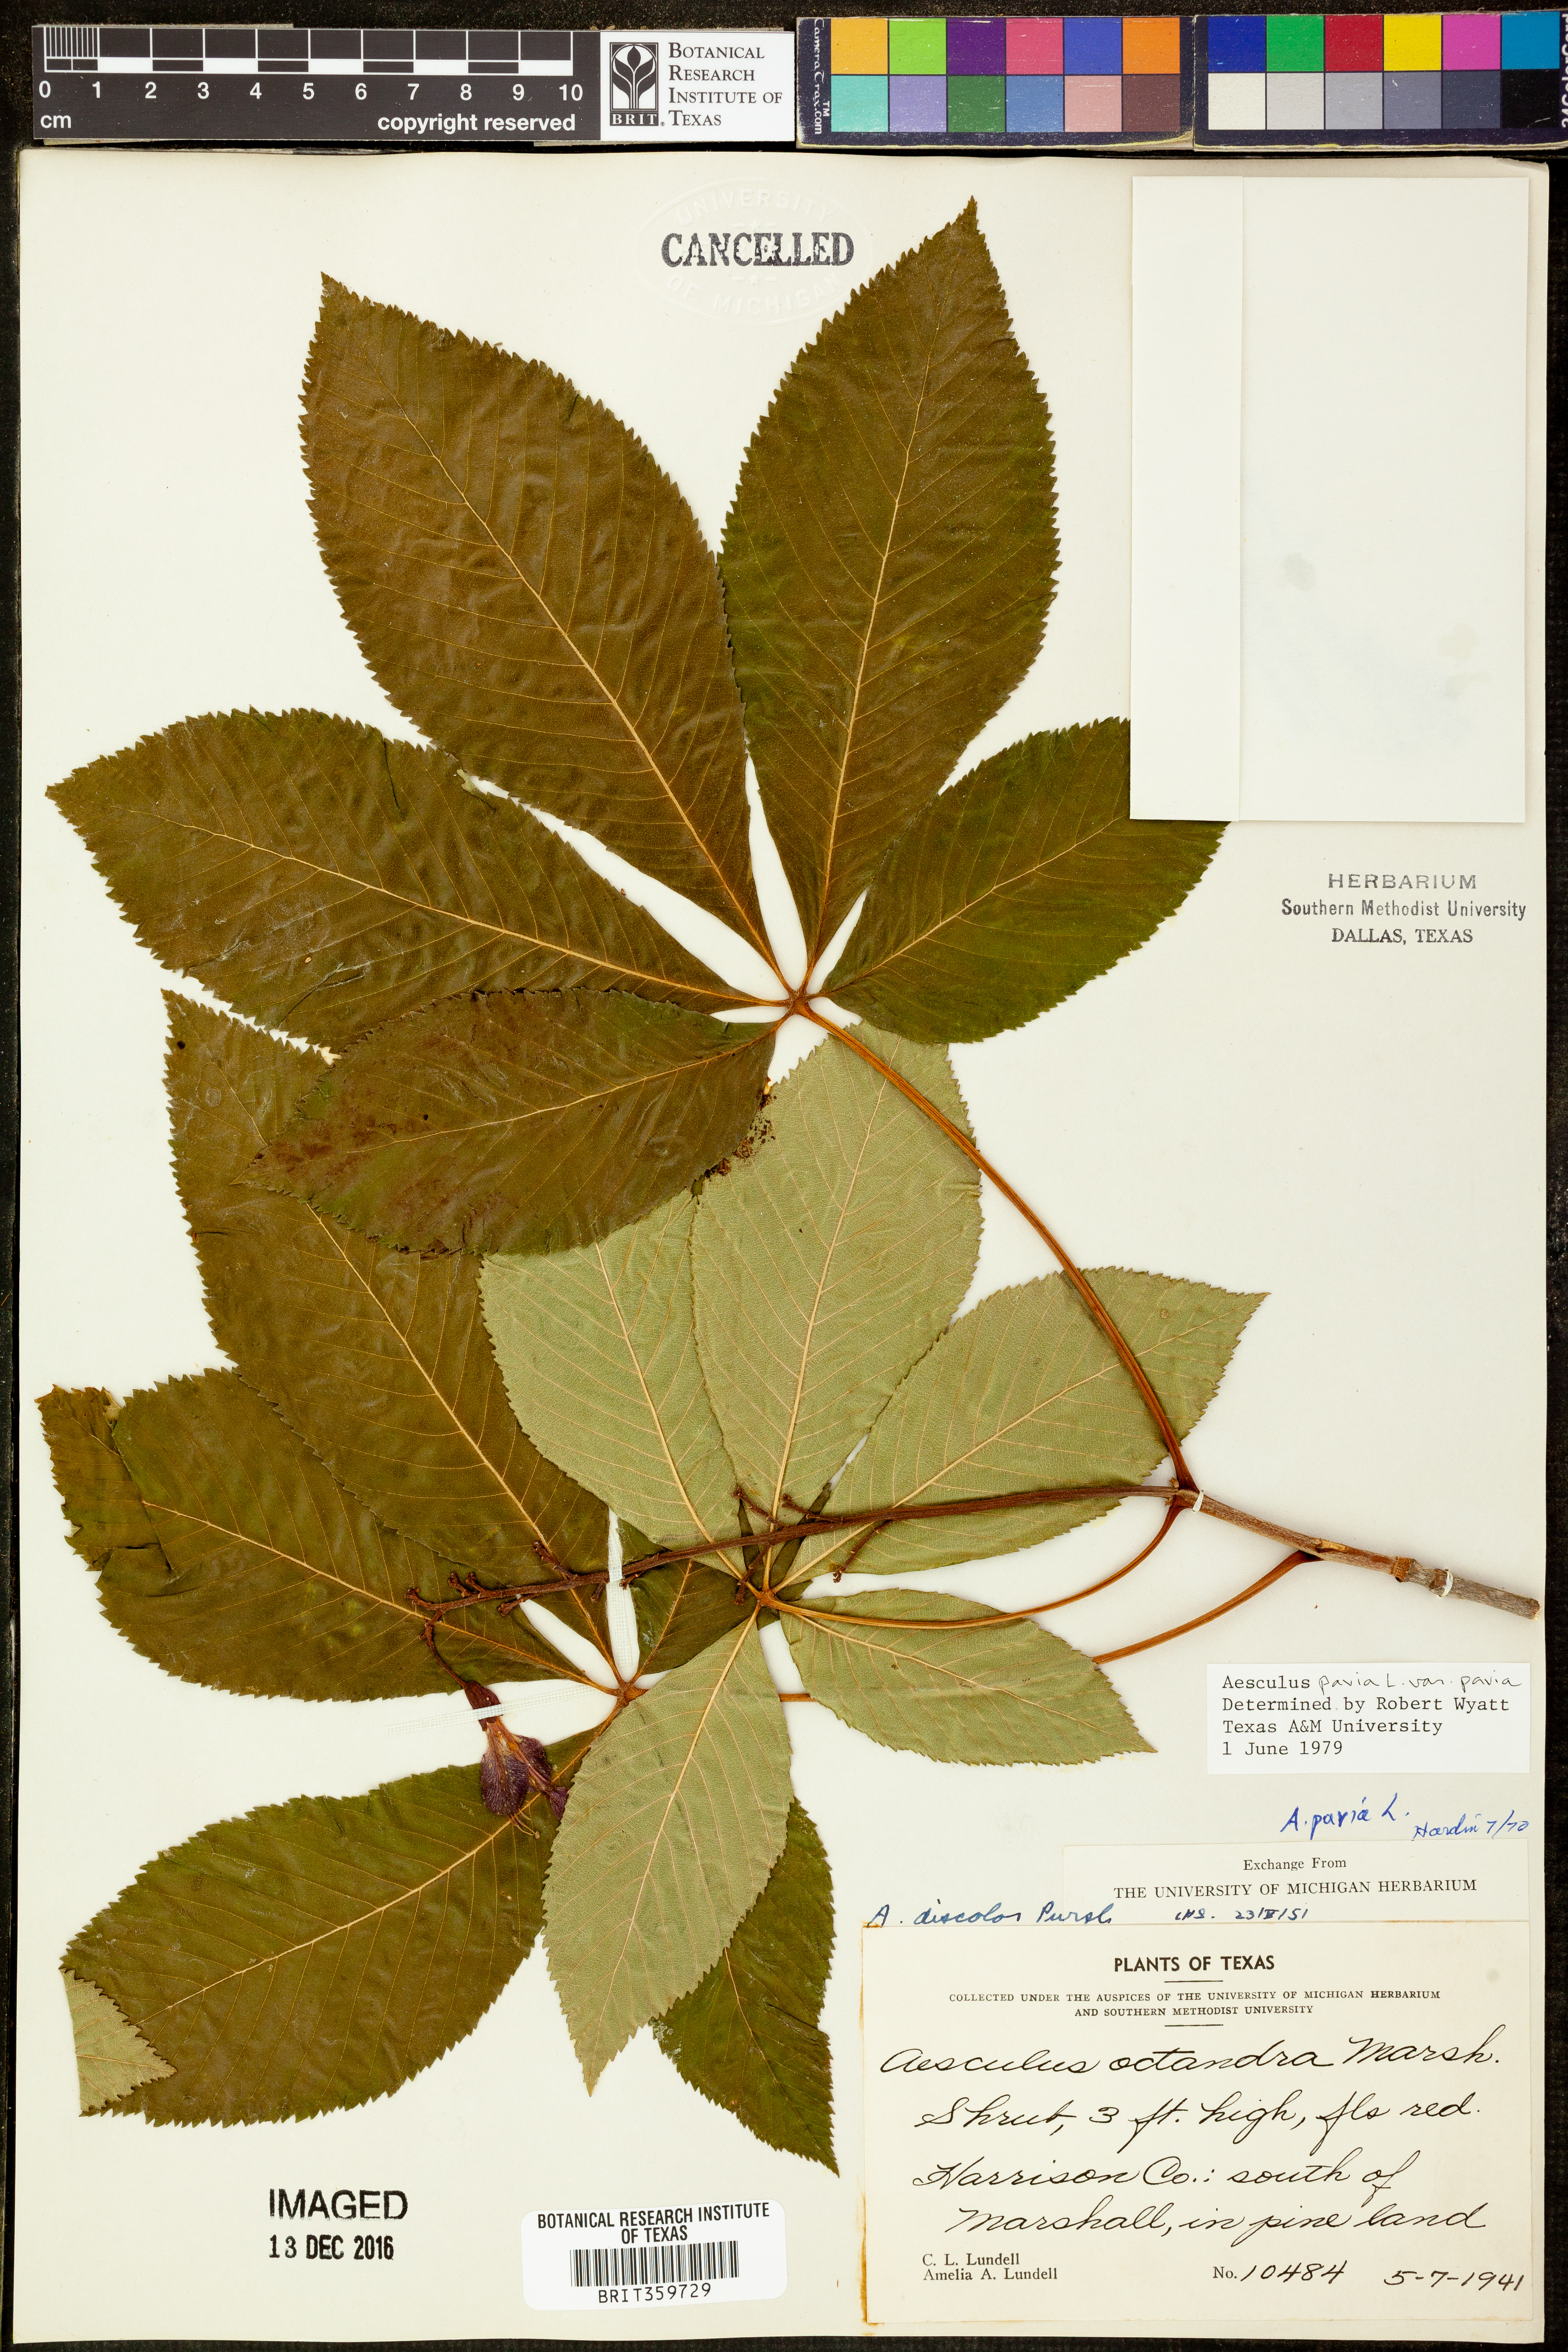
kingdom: Plantae
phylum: Tracheophyta
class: Magnoliopsida
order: Sapindales
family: Sapindaceae
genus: Aesculus
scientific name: Aesculus pavia
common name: Red buckeye
